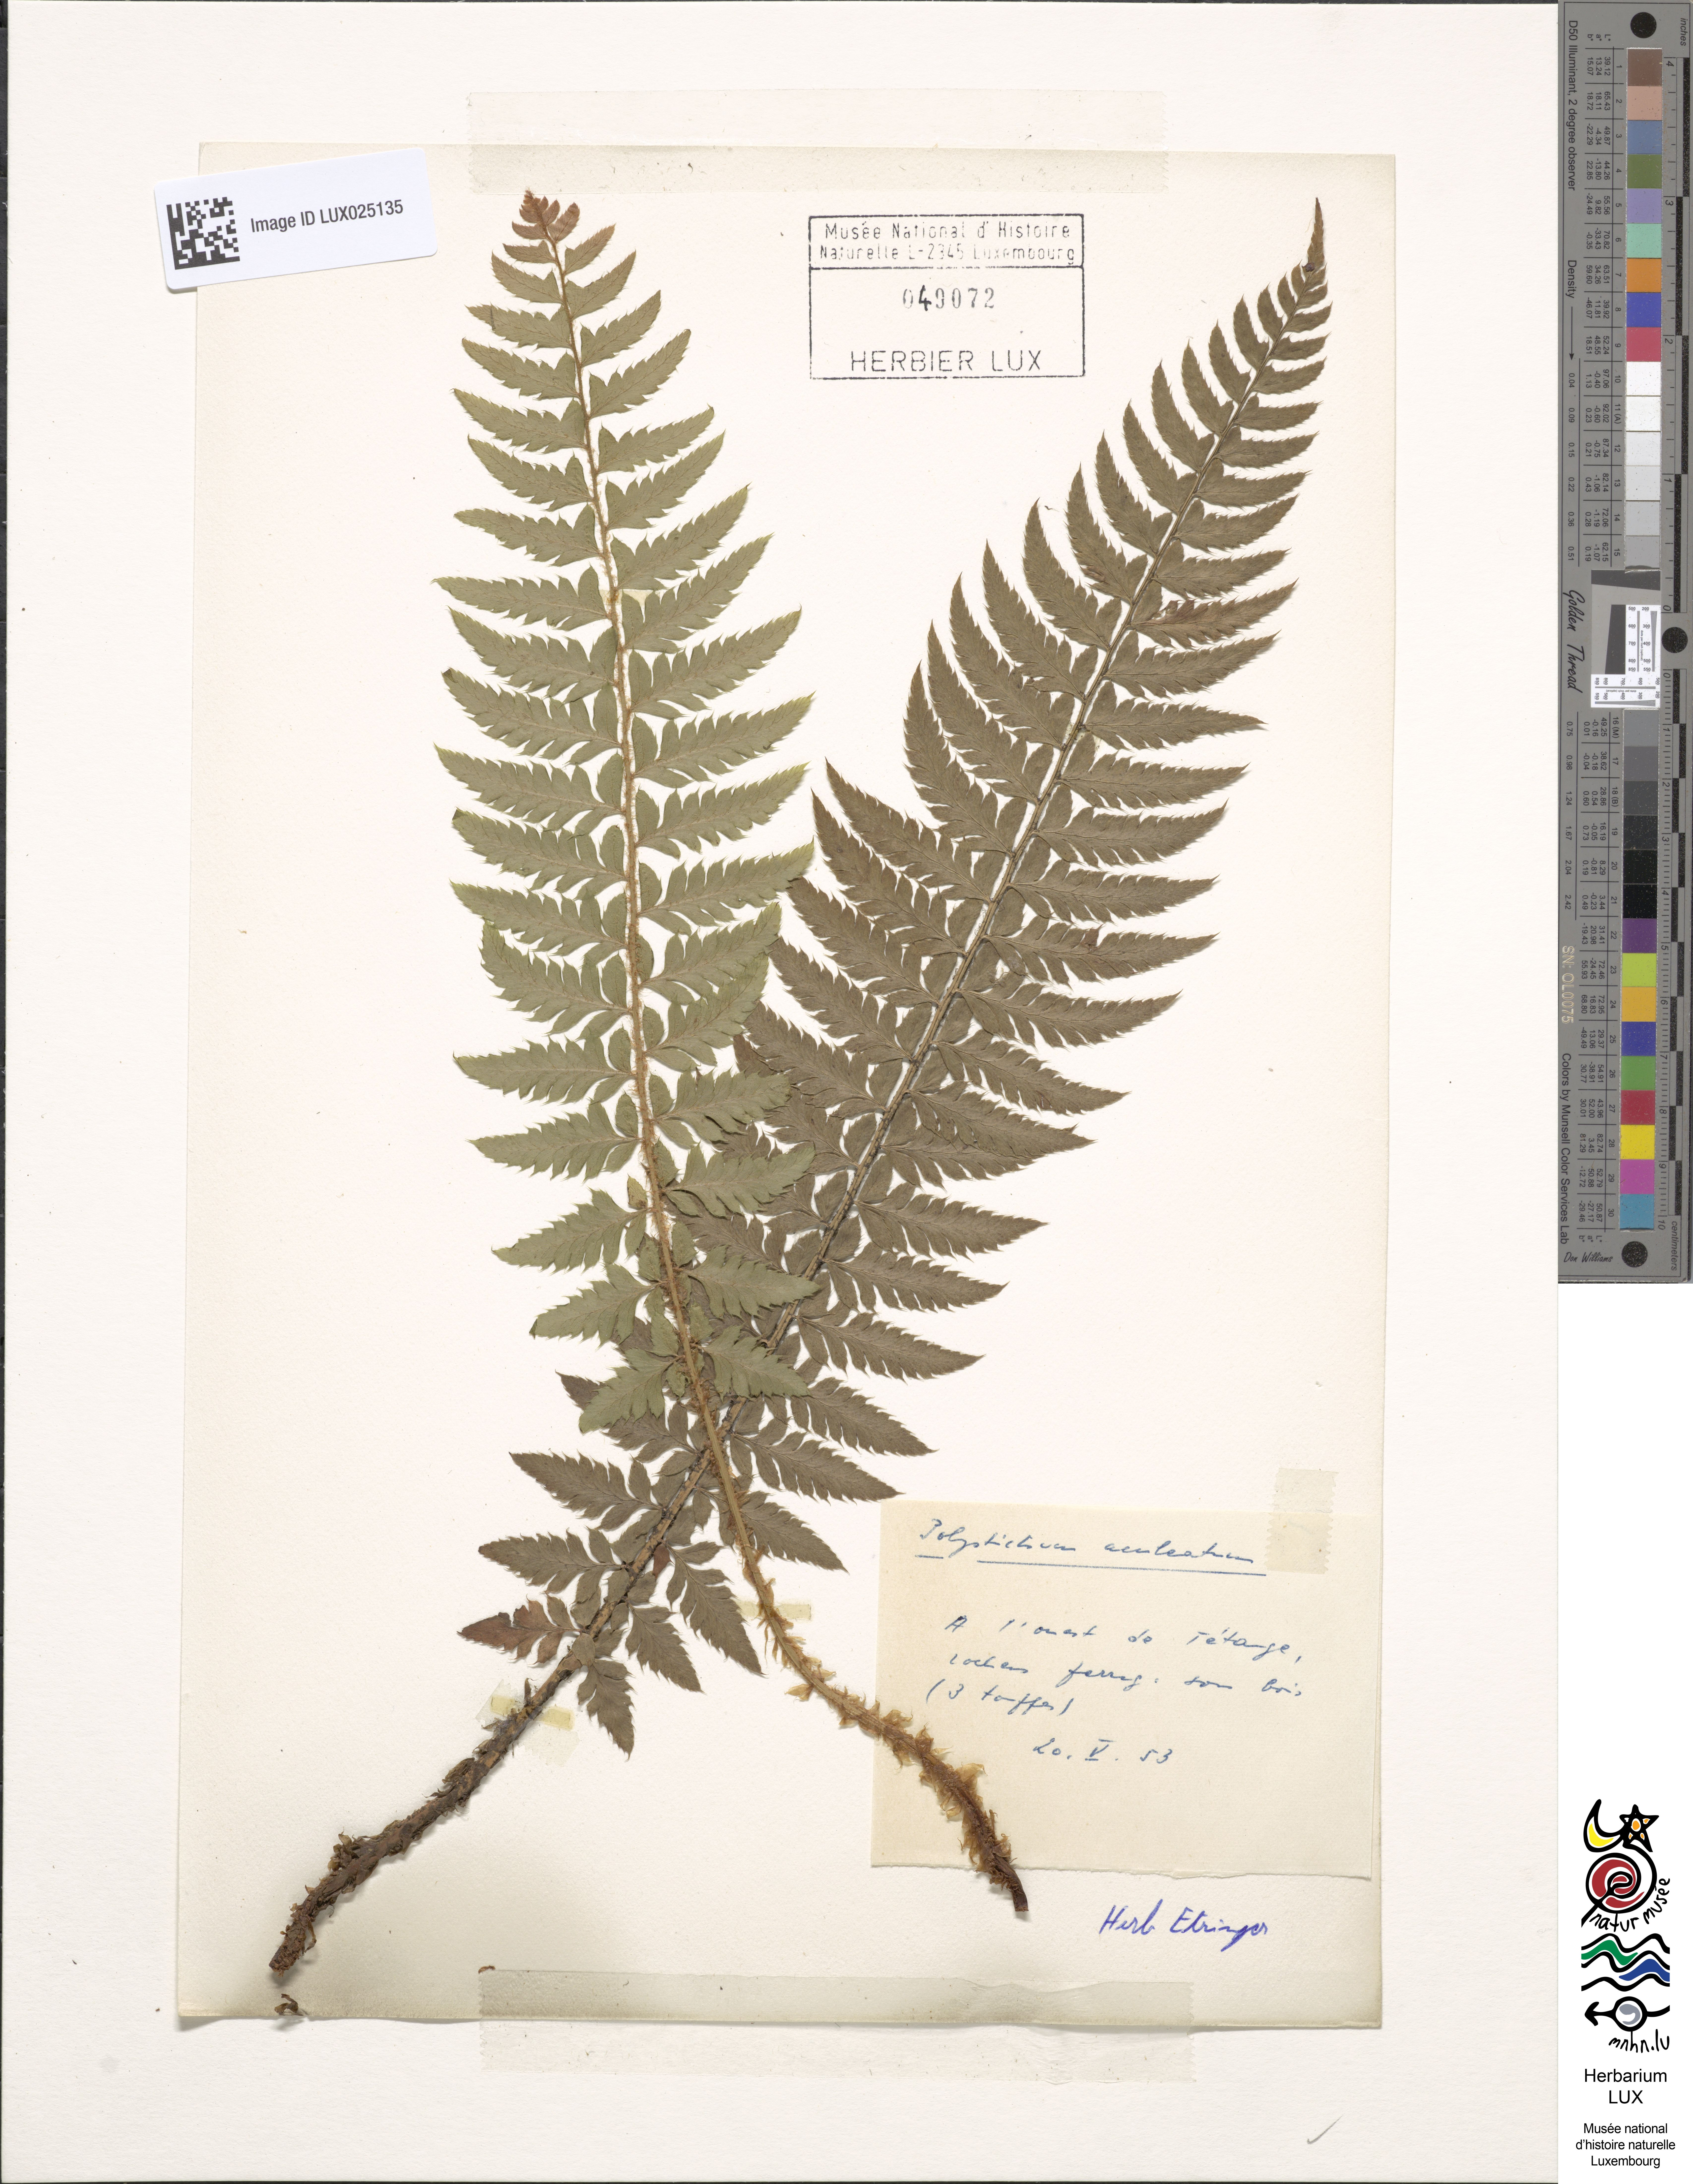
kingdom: Plantae
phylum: Tracheophyta
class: Polypodiopsida
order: Polypodiales
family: Dryopteridaceae
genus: Polystichum
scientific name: Polystichum aculeatum
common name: Hard shield-fern
